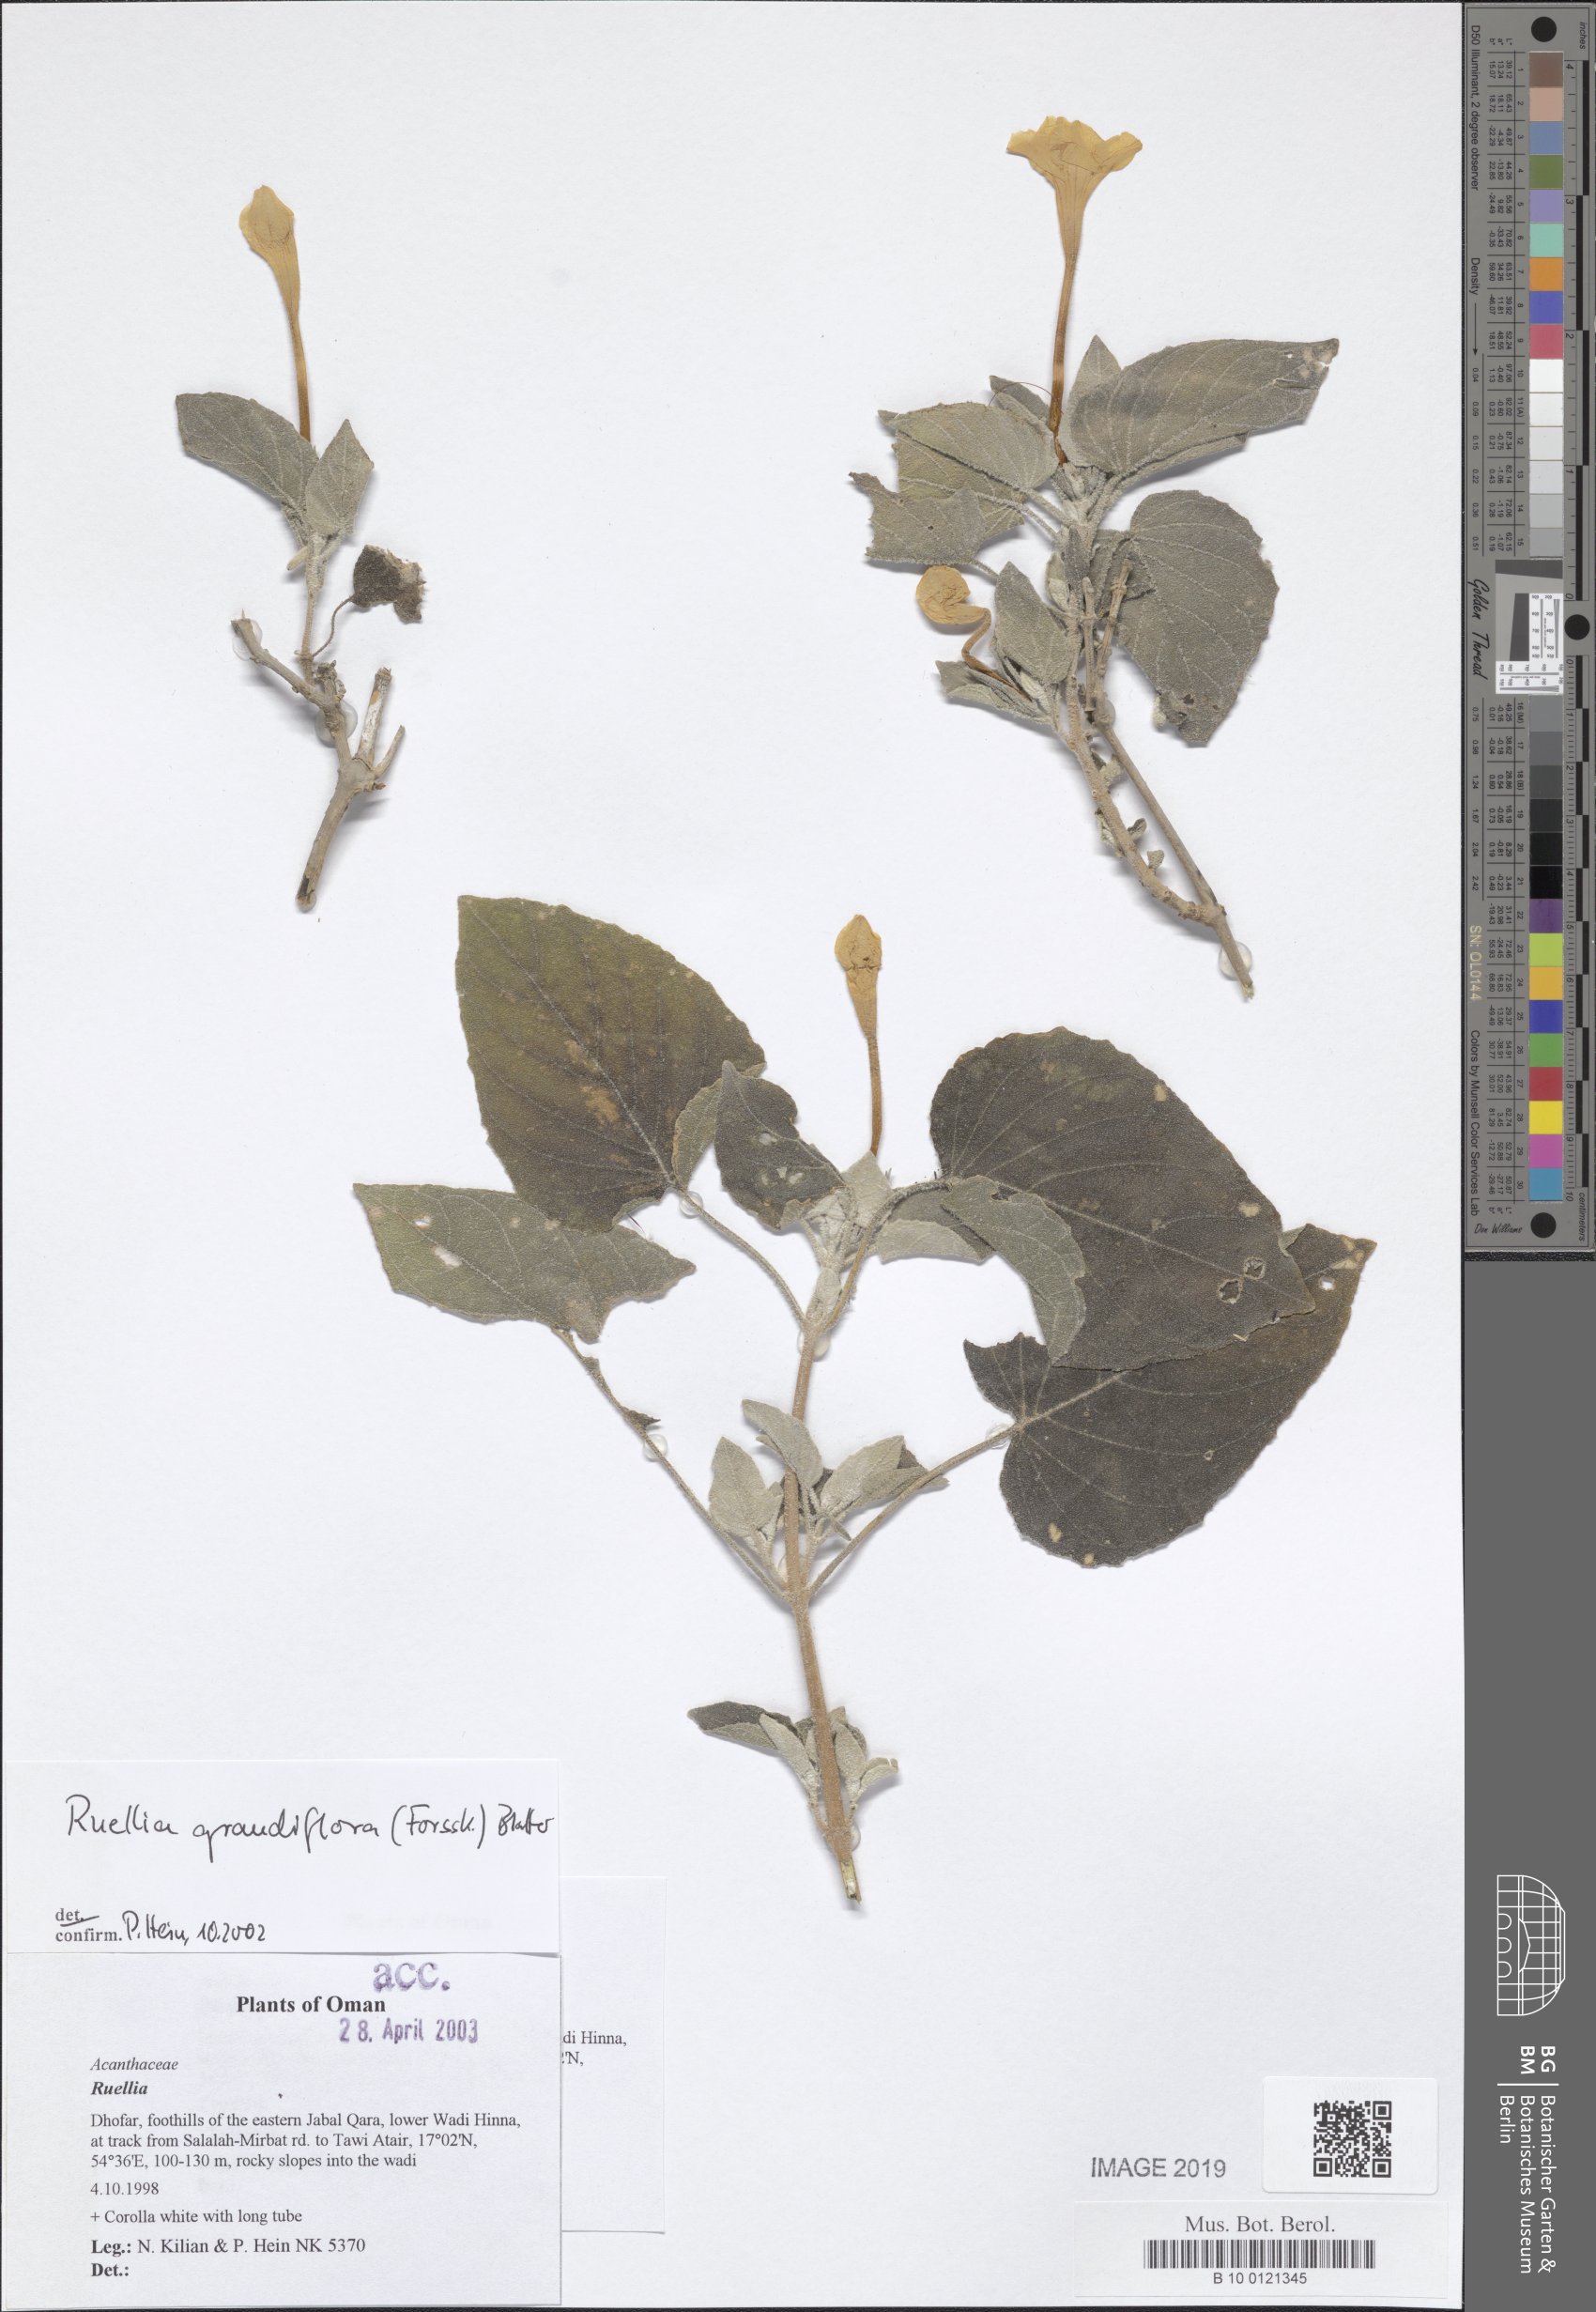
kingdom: Plantae
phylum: Tracheophyta
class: Magnoliopsida
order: Lamiales
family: Acanthaceae
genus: Ruellia
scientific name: Ruellia grandiflora
